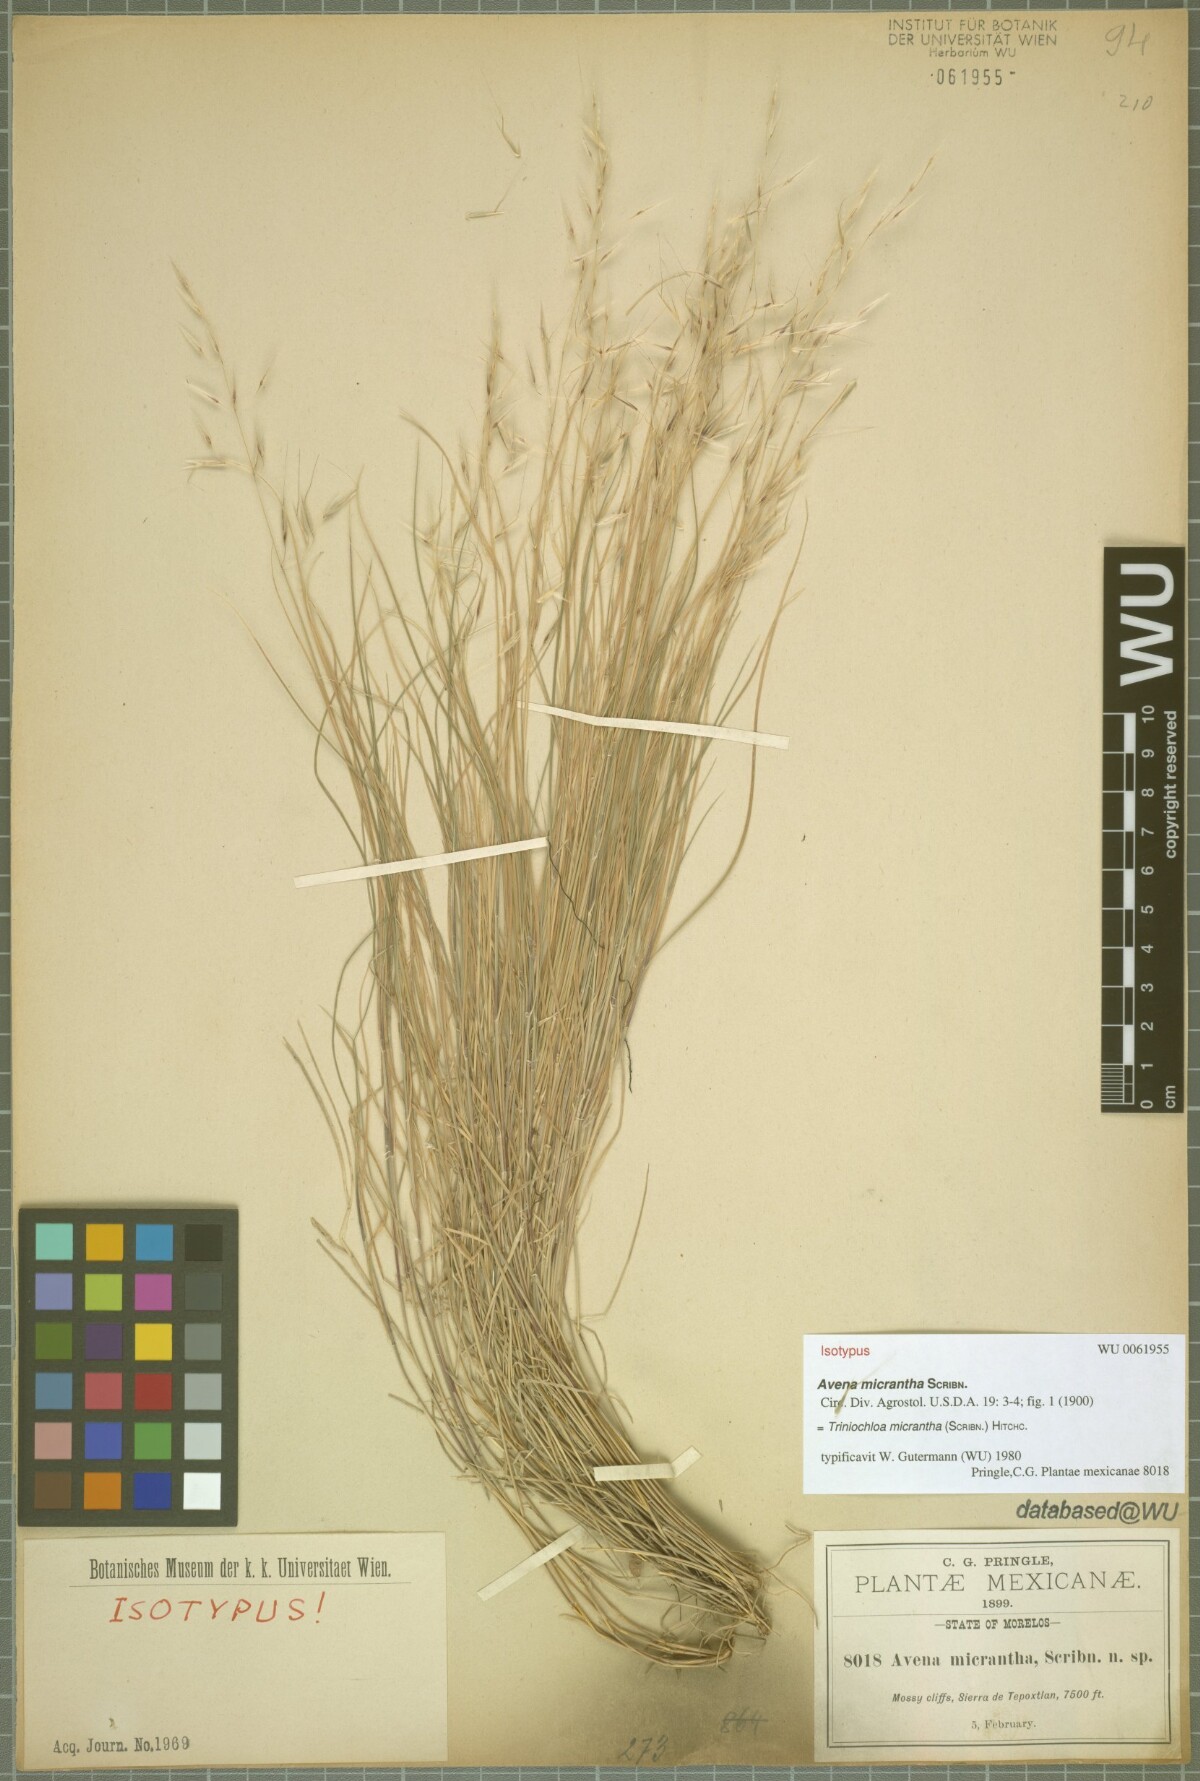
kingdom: Plantae
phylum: Tracheophyta
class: Liliopsida
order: Poales
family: Poaceae
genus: Triniochloa
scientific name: Triniochloa micrantha
